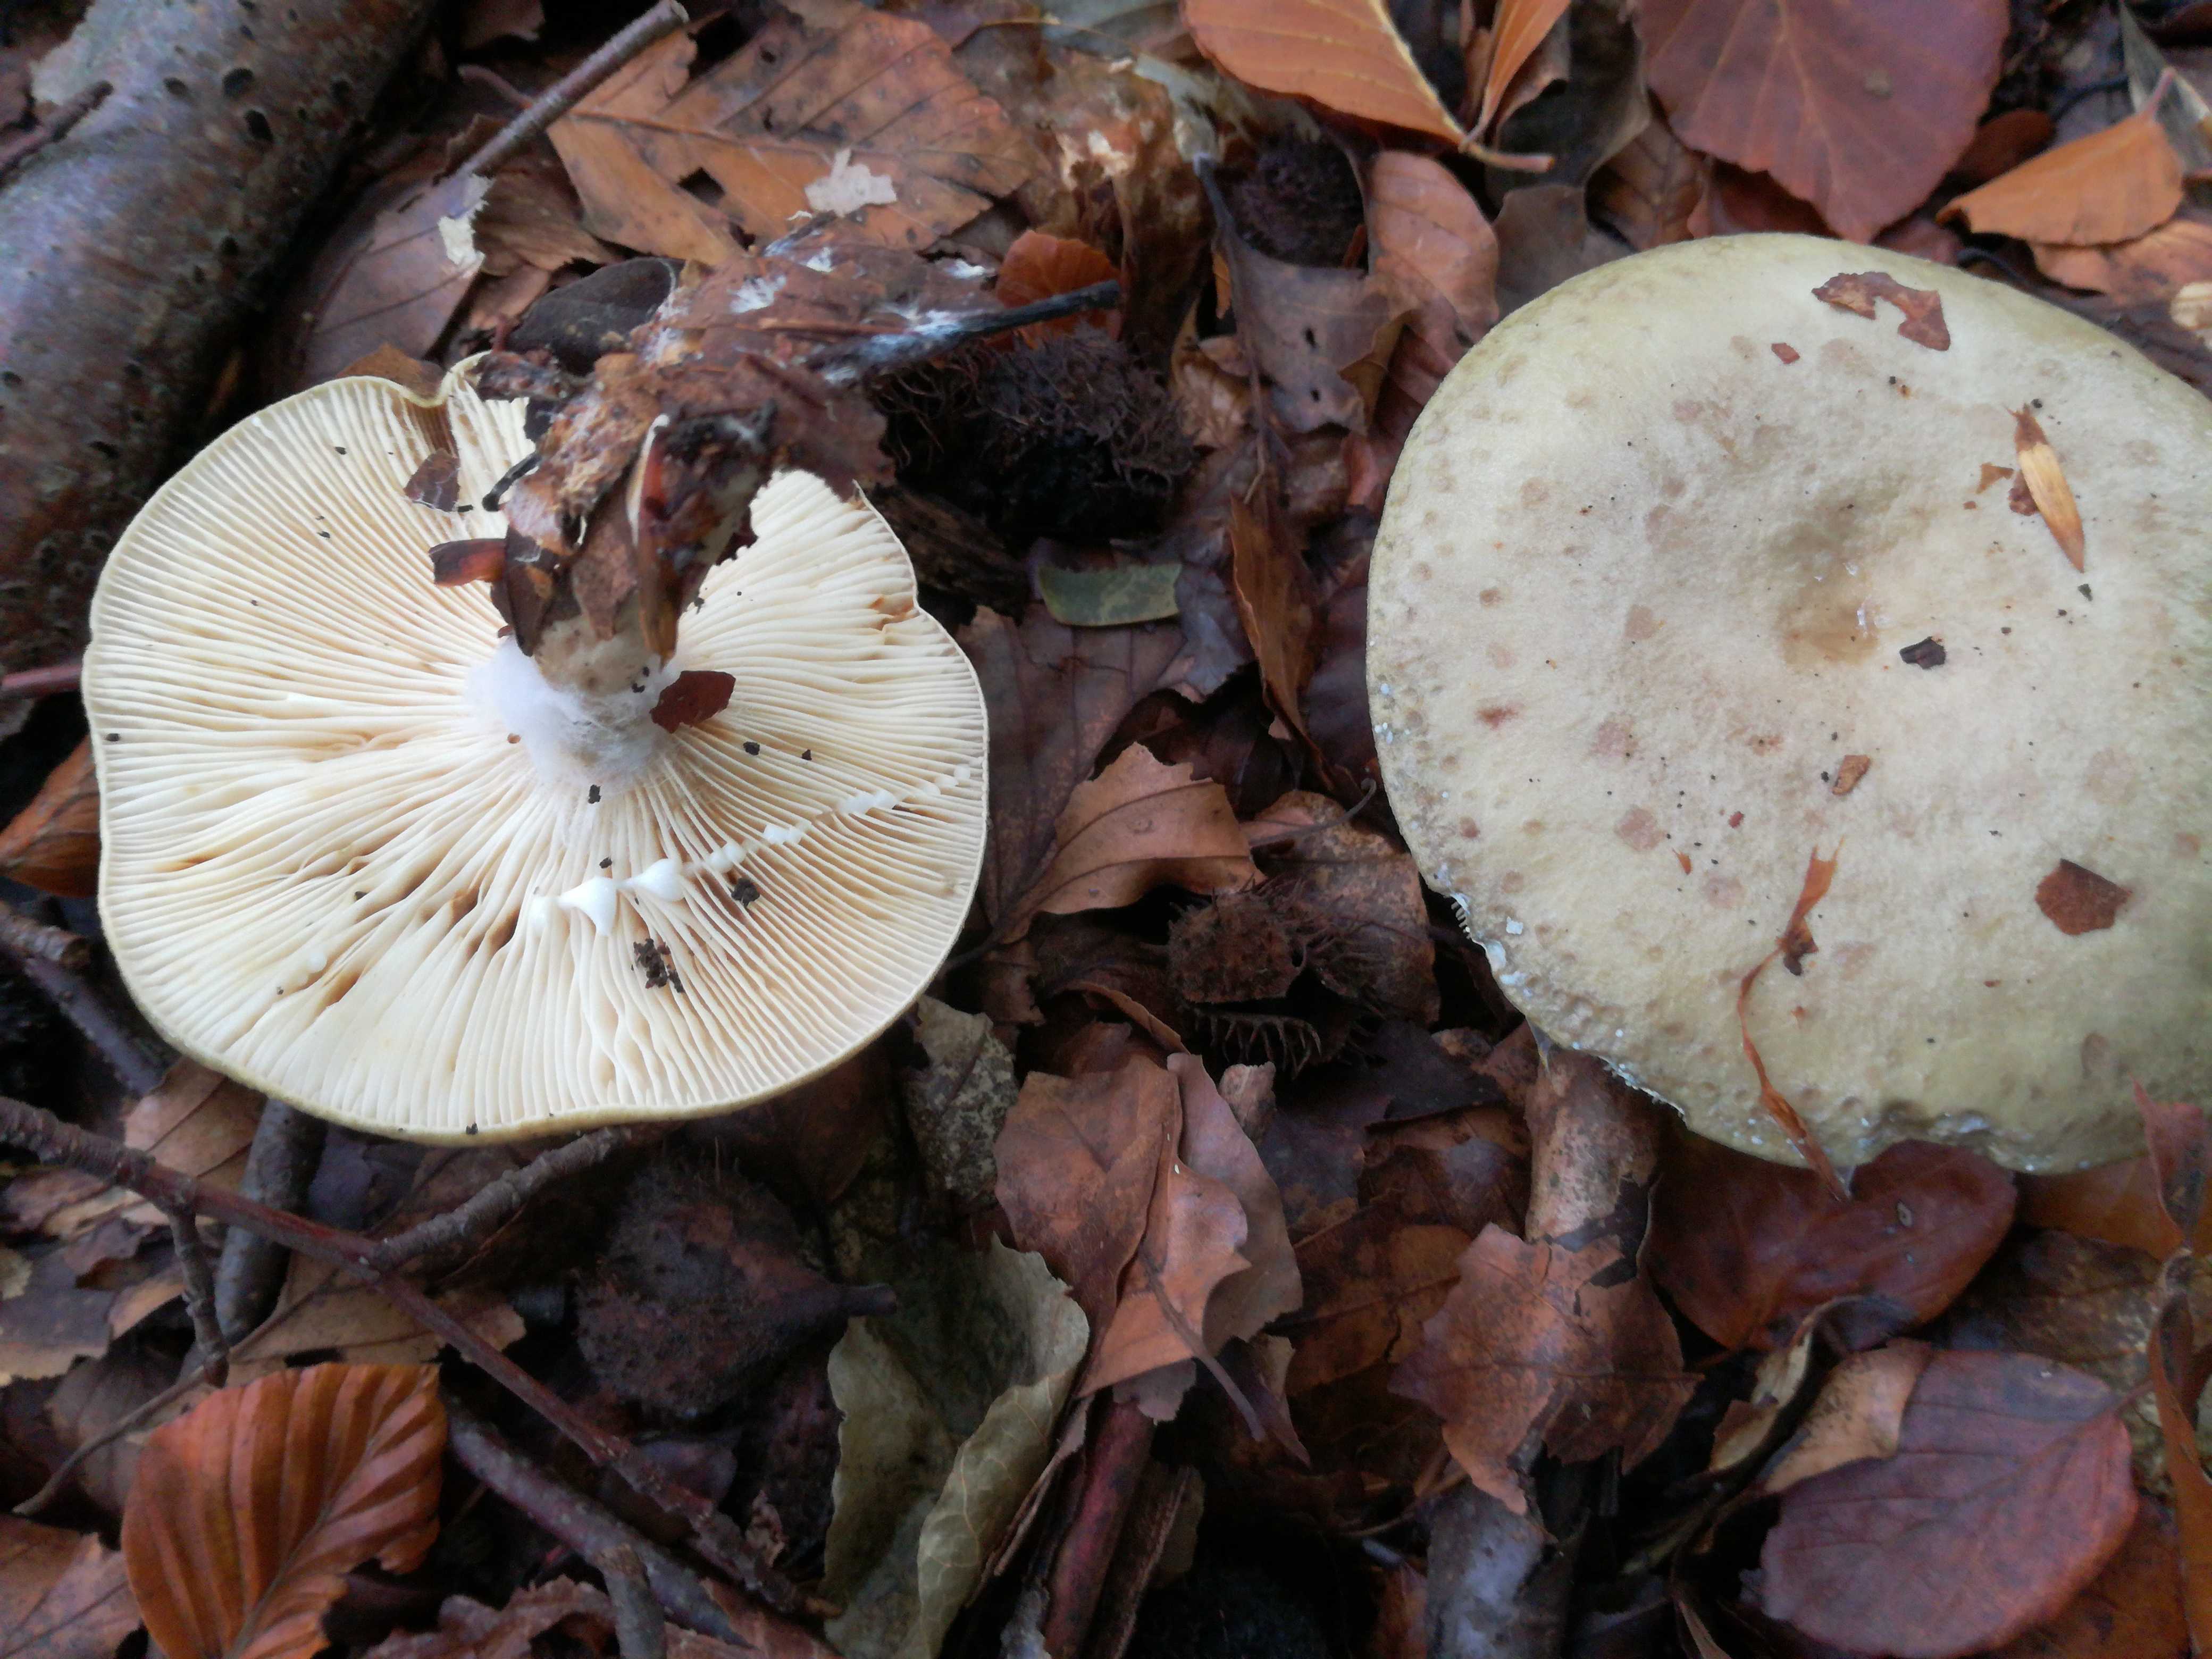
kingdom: Fungi
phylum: Basidiomycota
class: Agaricomycetes
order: Russulales
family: Russulaceae
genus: Lactarius
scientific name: Lactarius blennius
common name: dråbeplettet mælkehat
